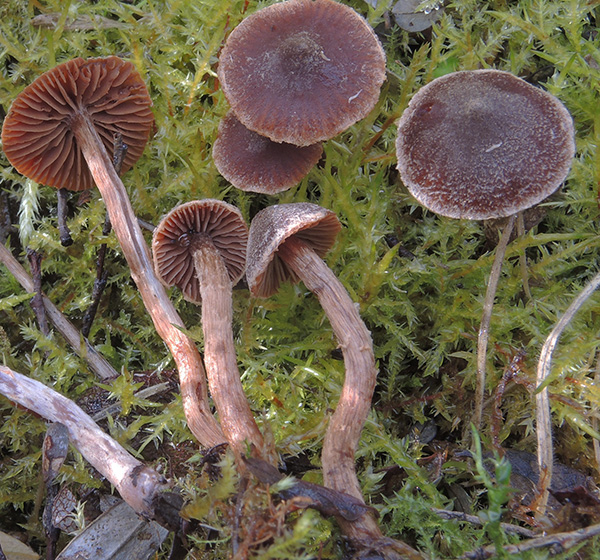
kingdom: Fungi
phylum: Basidiomycota
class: Agaricomycetes
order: Agaricales
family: Cortinariaceae
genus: Cortinarius
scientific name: Cortinarius comatus
